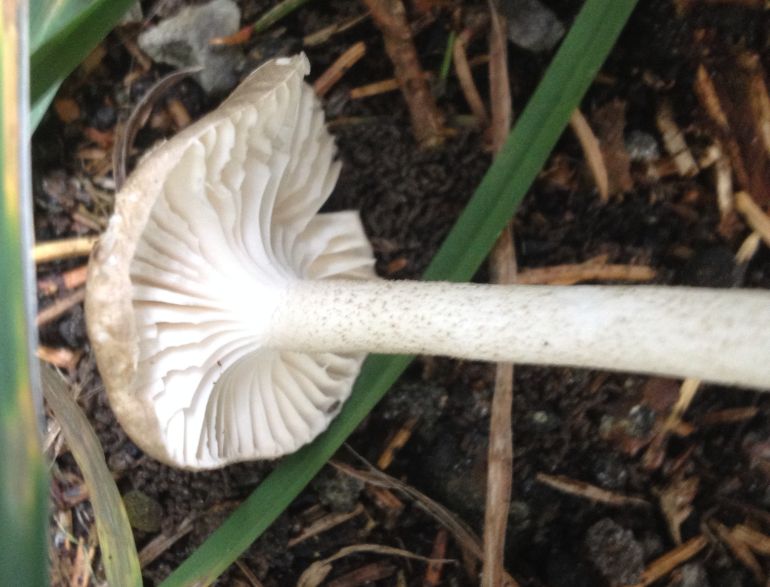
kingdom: Fungi
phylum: Basidiomycota
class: Agaricomycetes
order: Agaricales
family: Hygrophoraceae
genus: Hygrophorus
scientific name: Hygrophorus pustulatus
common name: mørkprikket sneglehat
